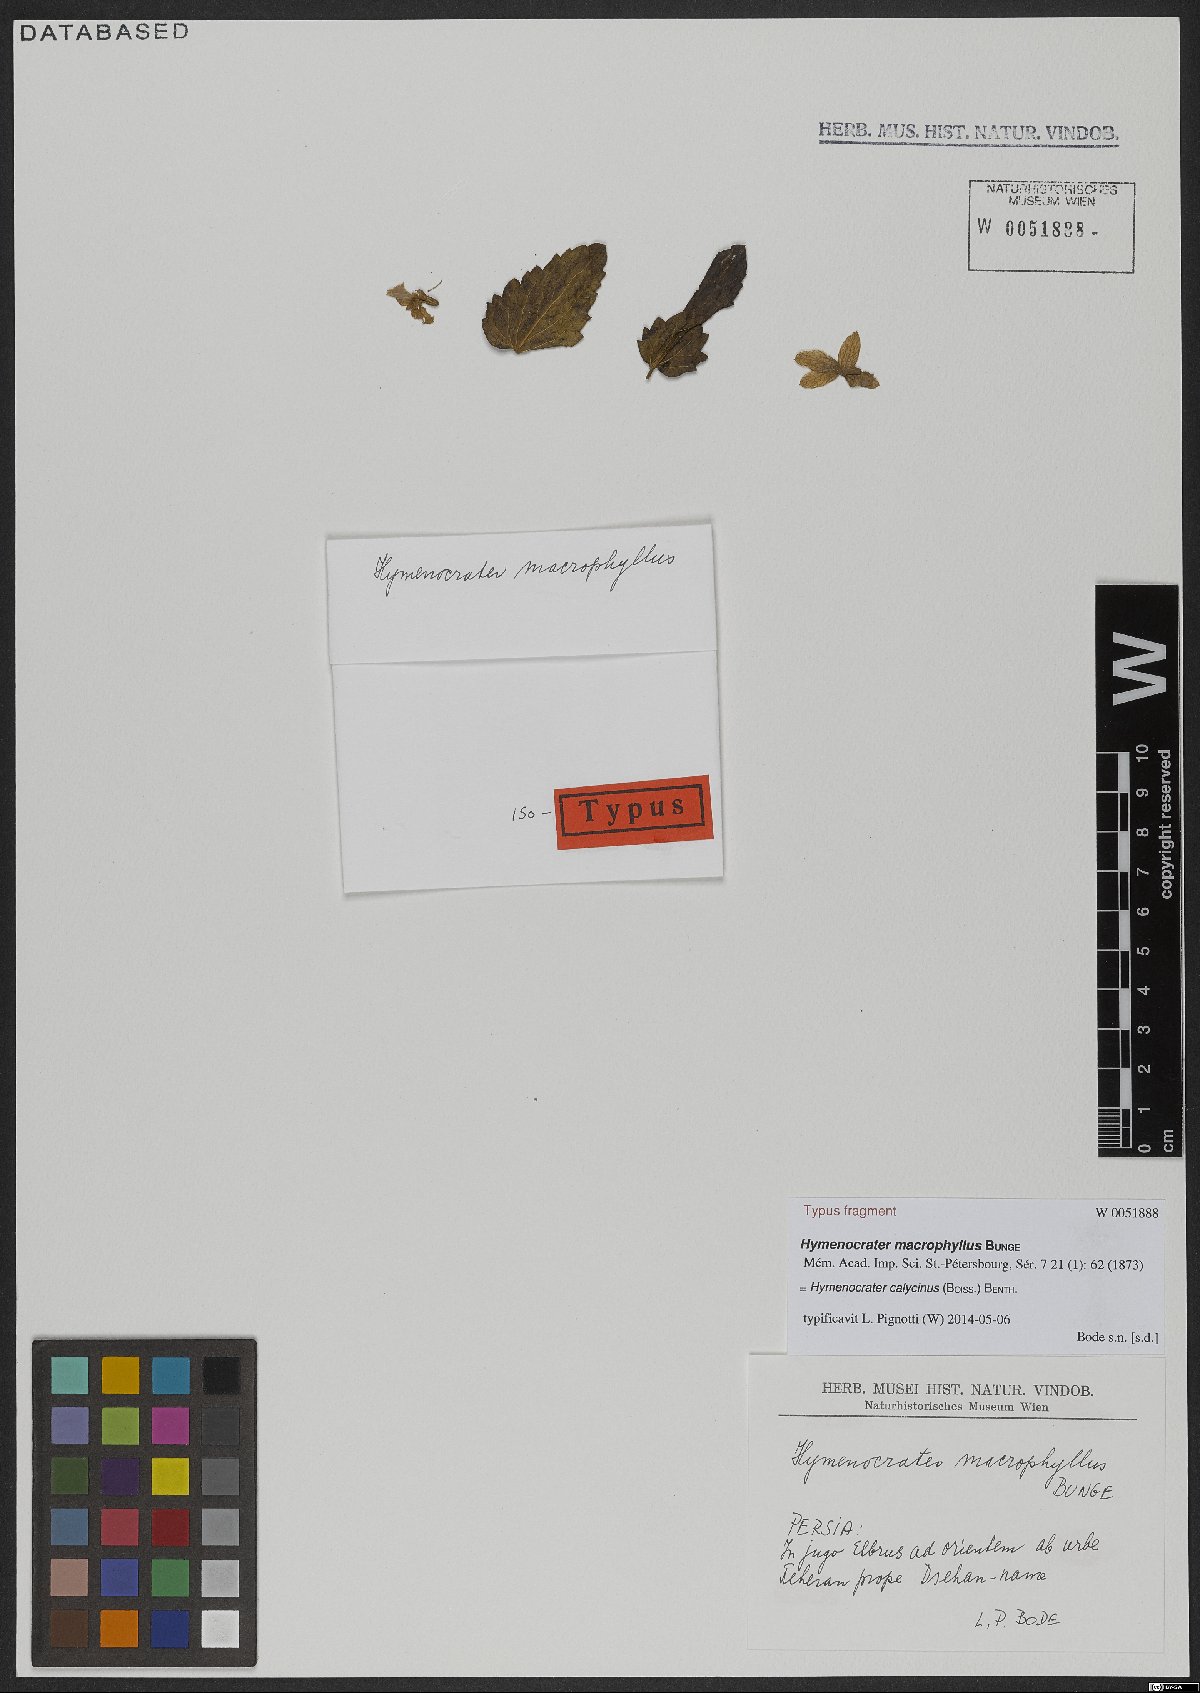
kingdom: Plantae
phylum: Tracheophyta
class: Magnoliopsida
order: Lamiales
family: Lamiaceae
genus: Hymenocrater
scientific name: Hymenocrater calycinus
